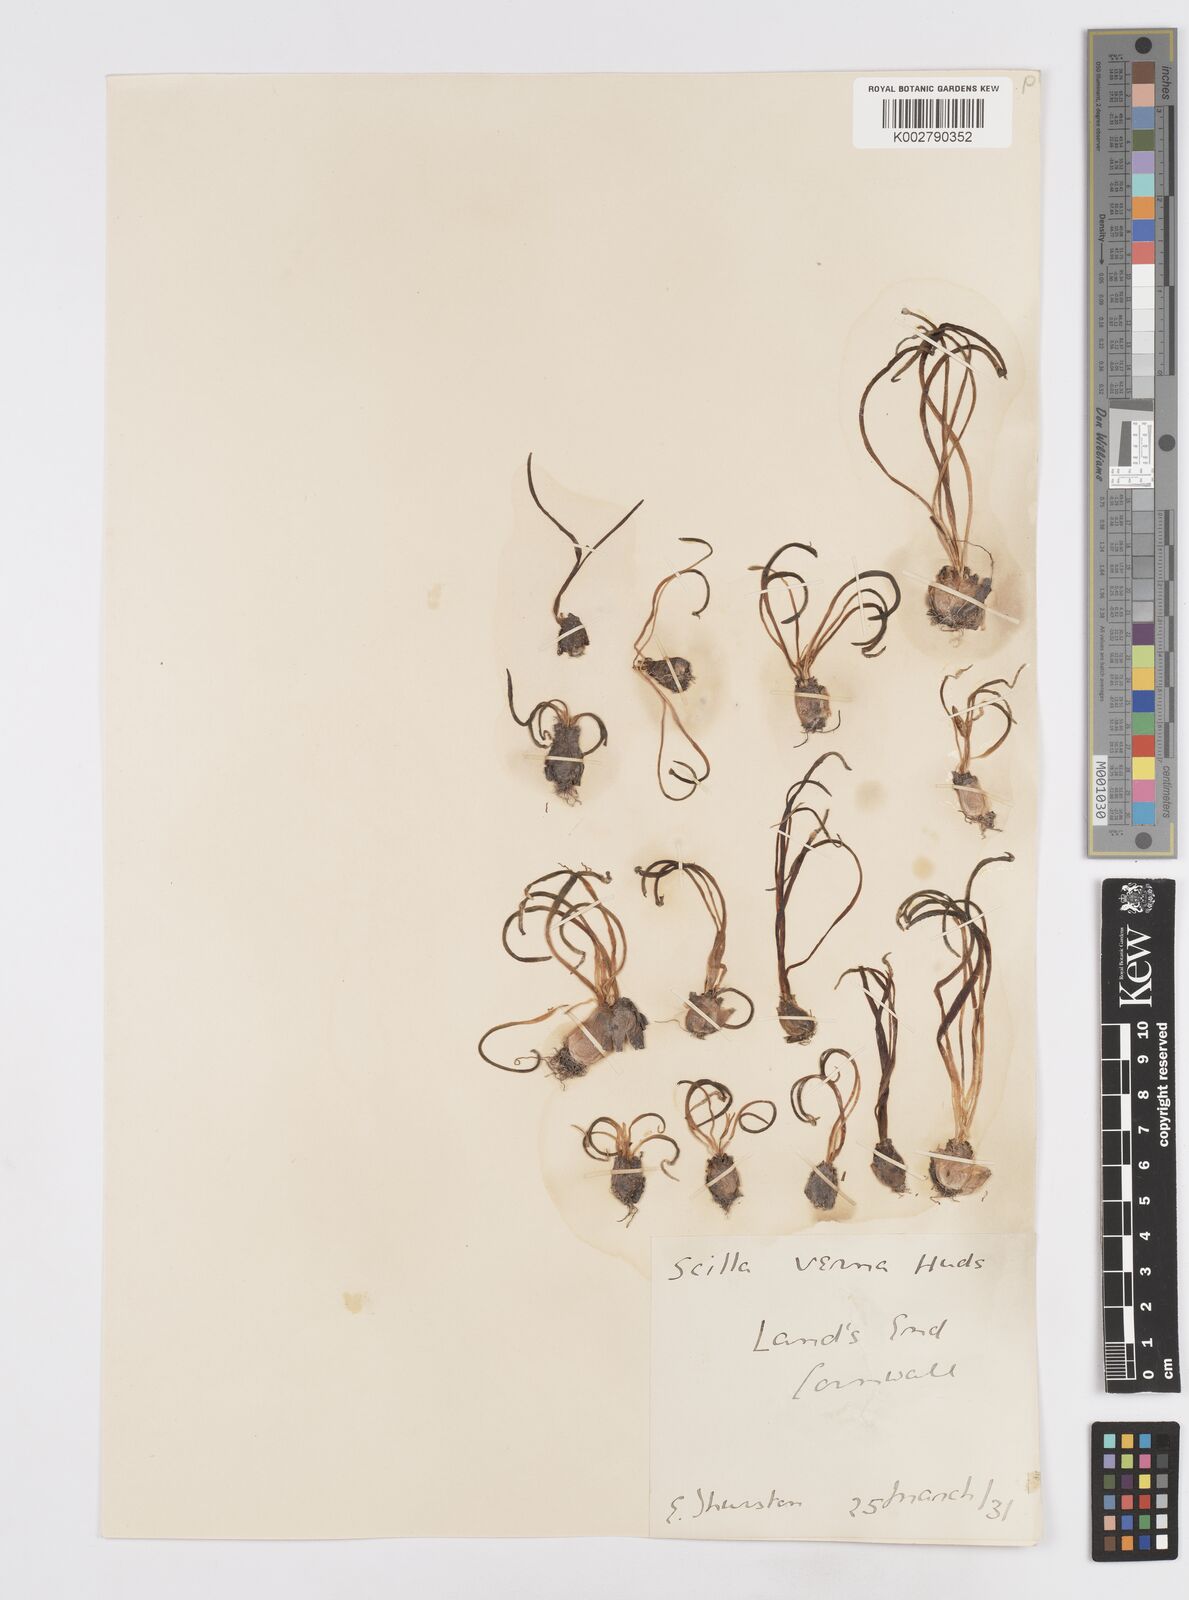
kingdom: Plantae
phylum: Tracheophyta
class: Liliopsida
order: Asparagales
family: Asparagaceae
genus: Scilla
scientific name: Scilla verna
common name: Spring squill
